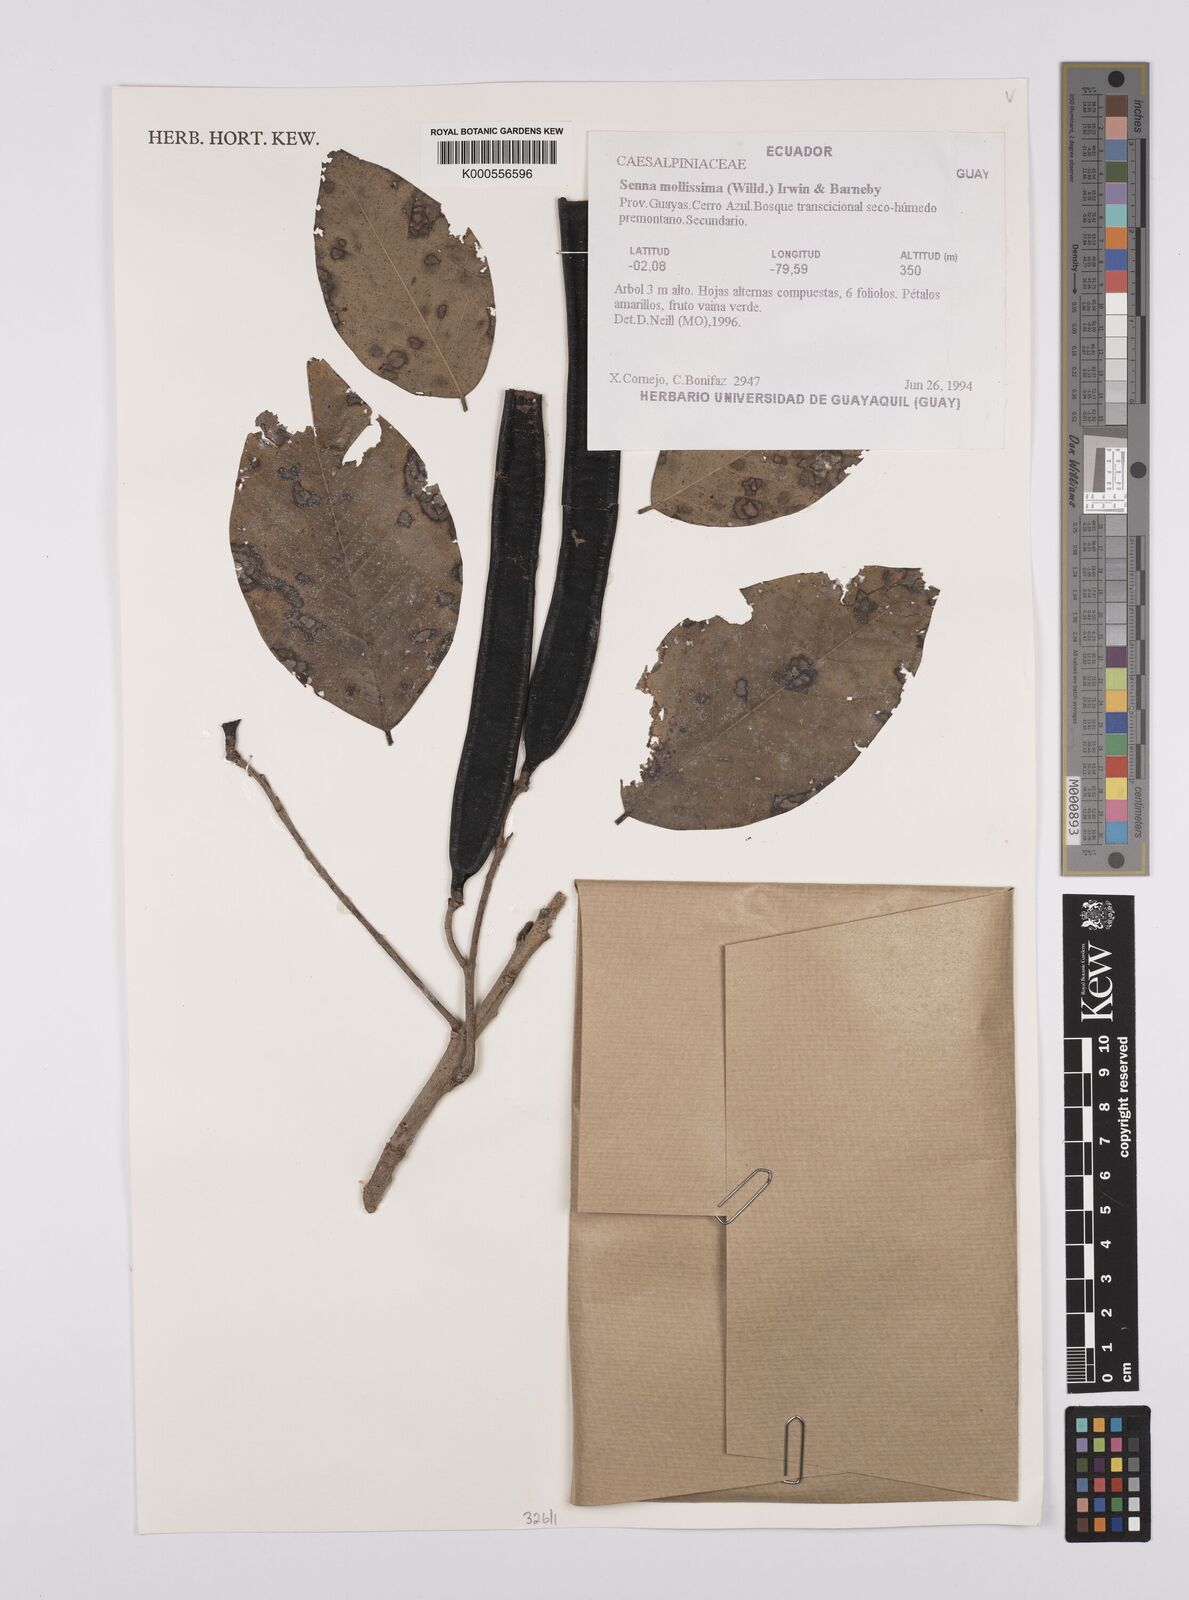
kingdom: Plantae
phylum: Tracheophyta
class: Magnoliopsida
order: Fabales
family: Fabaceae
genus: Senna
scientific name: Senna mollissima
